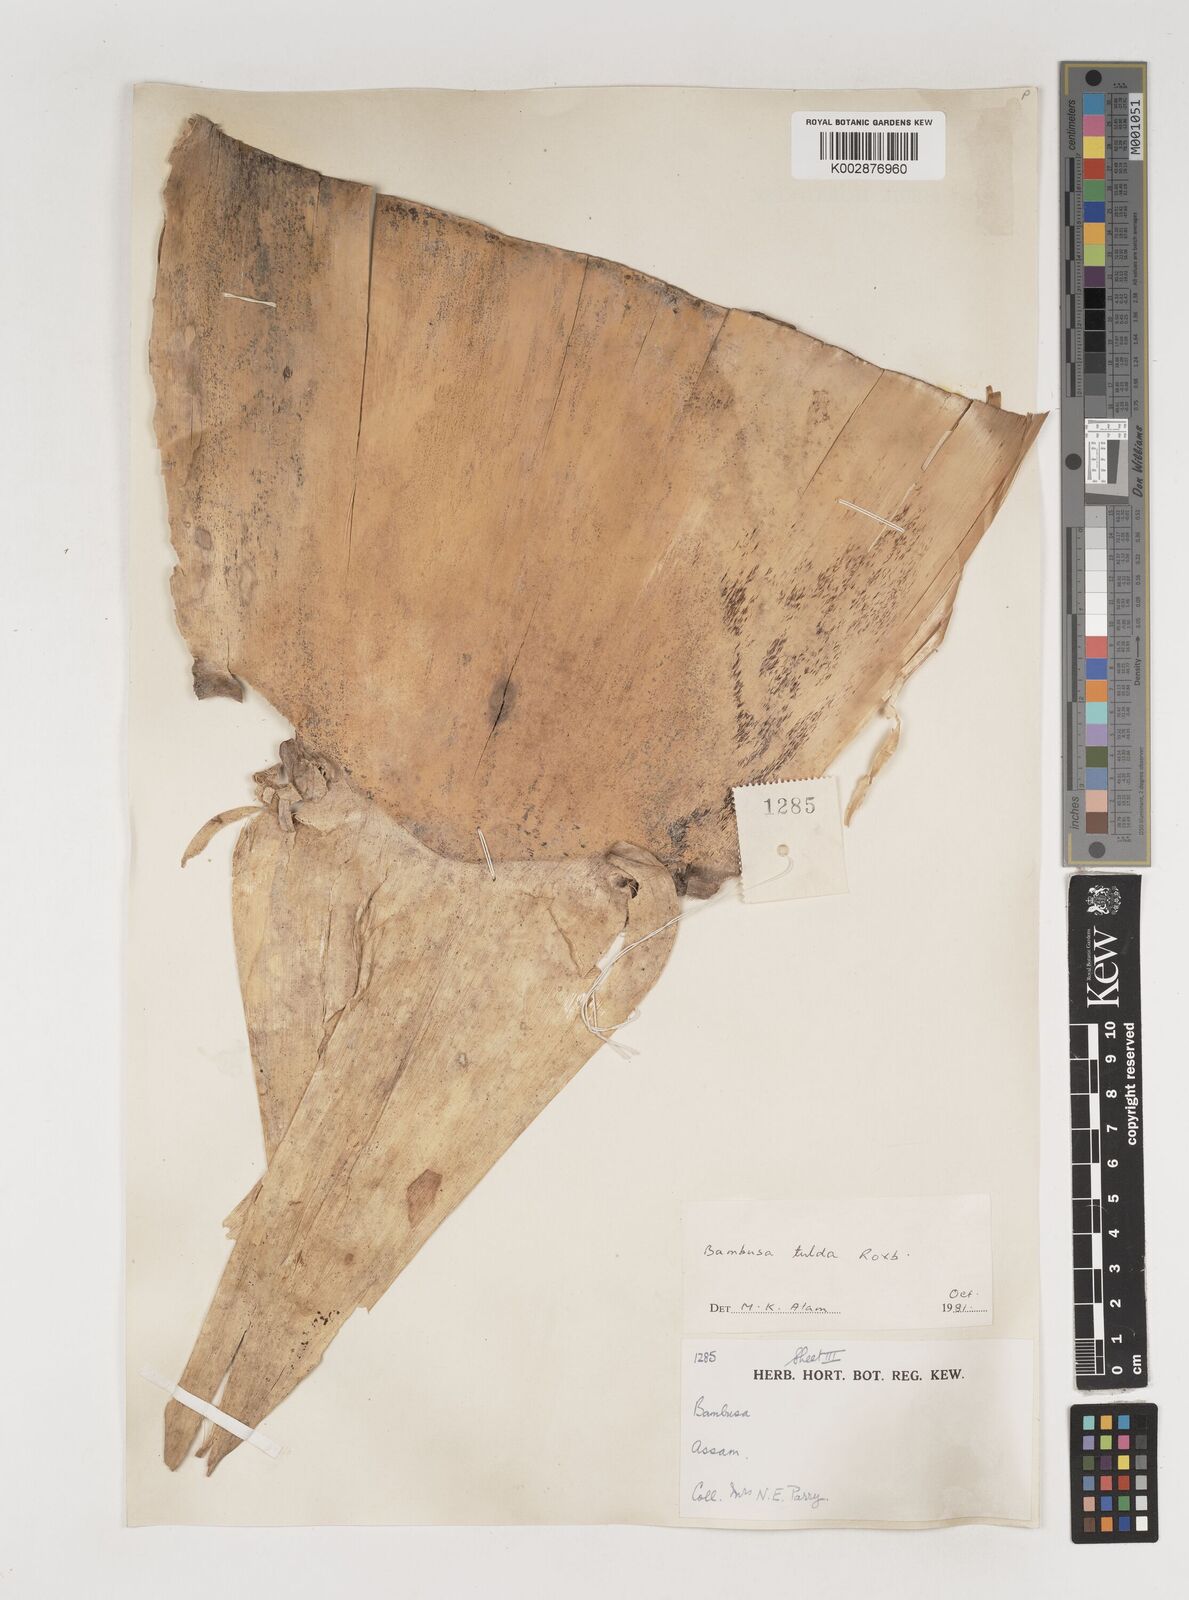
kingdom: Plantae
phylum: Tracheophyta
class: Liliopsida
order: Poales
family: Poaceae
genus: Bambusa
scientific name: Bambusa tulda
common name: Bengal bamboo
